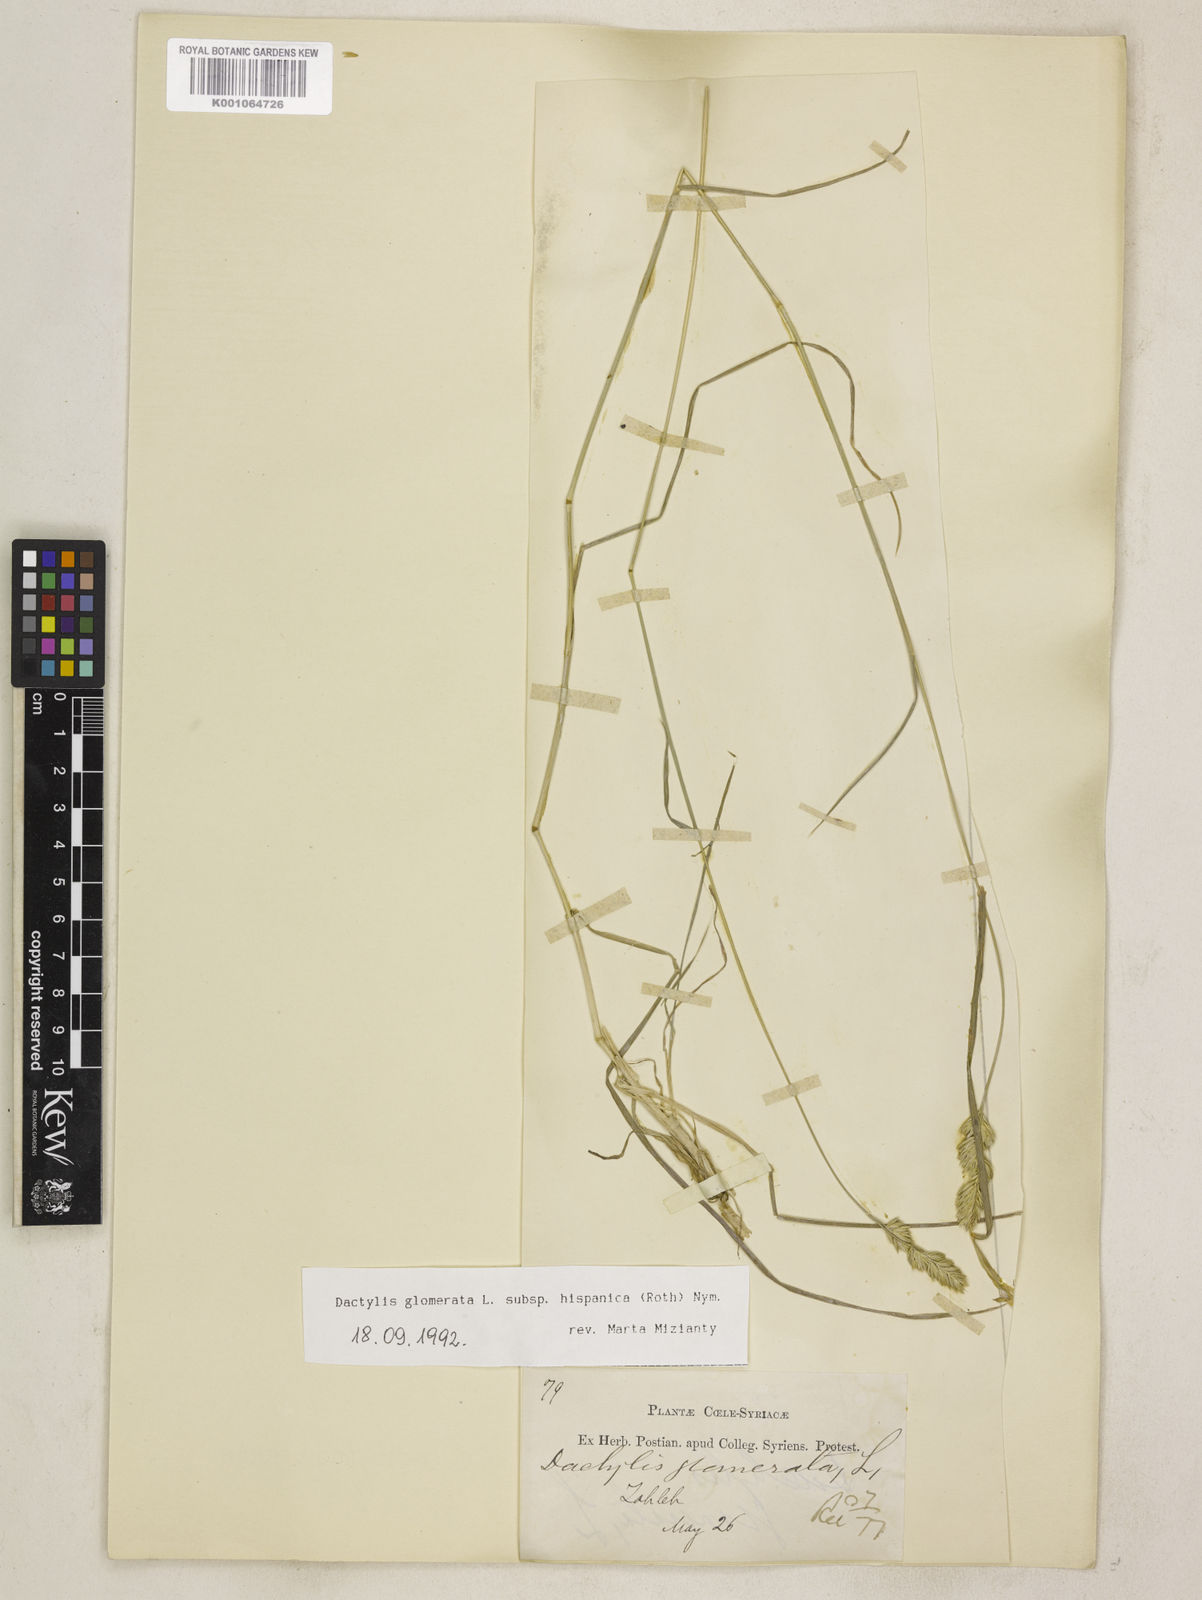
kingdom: Plantae
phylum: Tracheophyta
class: Liliopsida
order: Poales
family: Poaceae
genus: Dactylis
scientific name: Dactylis glomerata
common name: Orchardgrass
